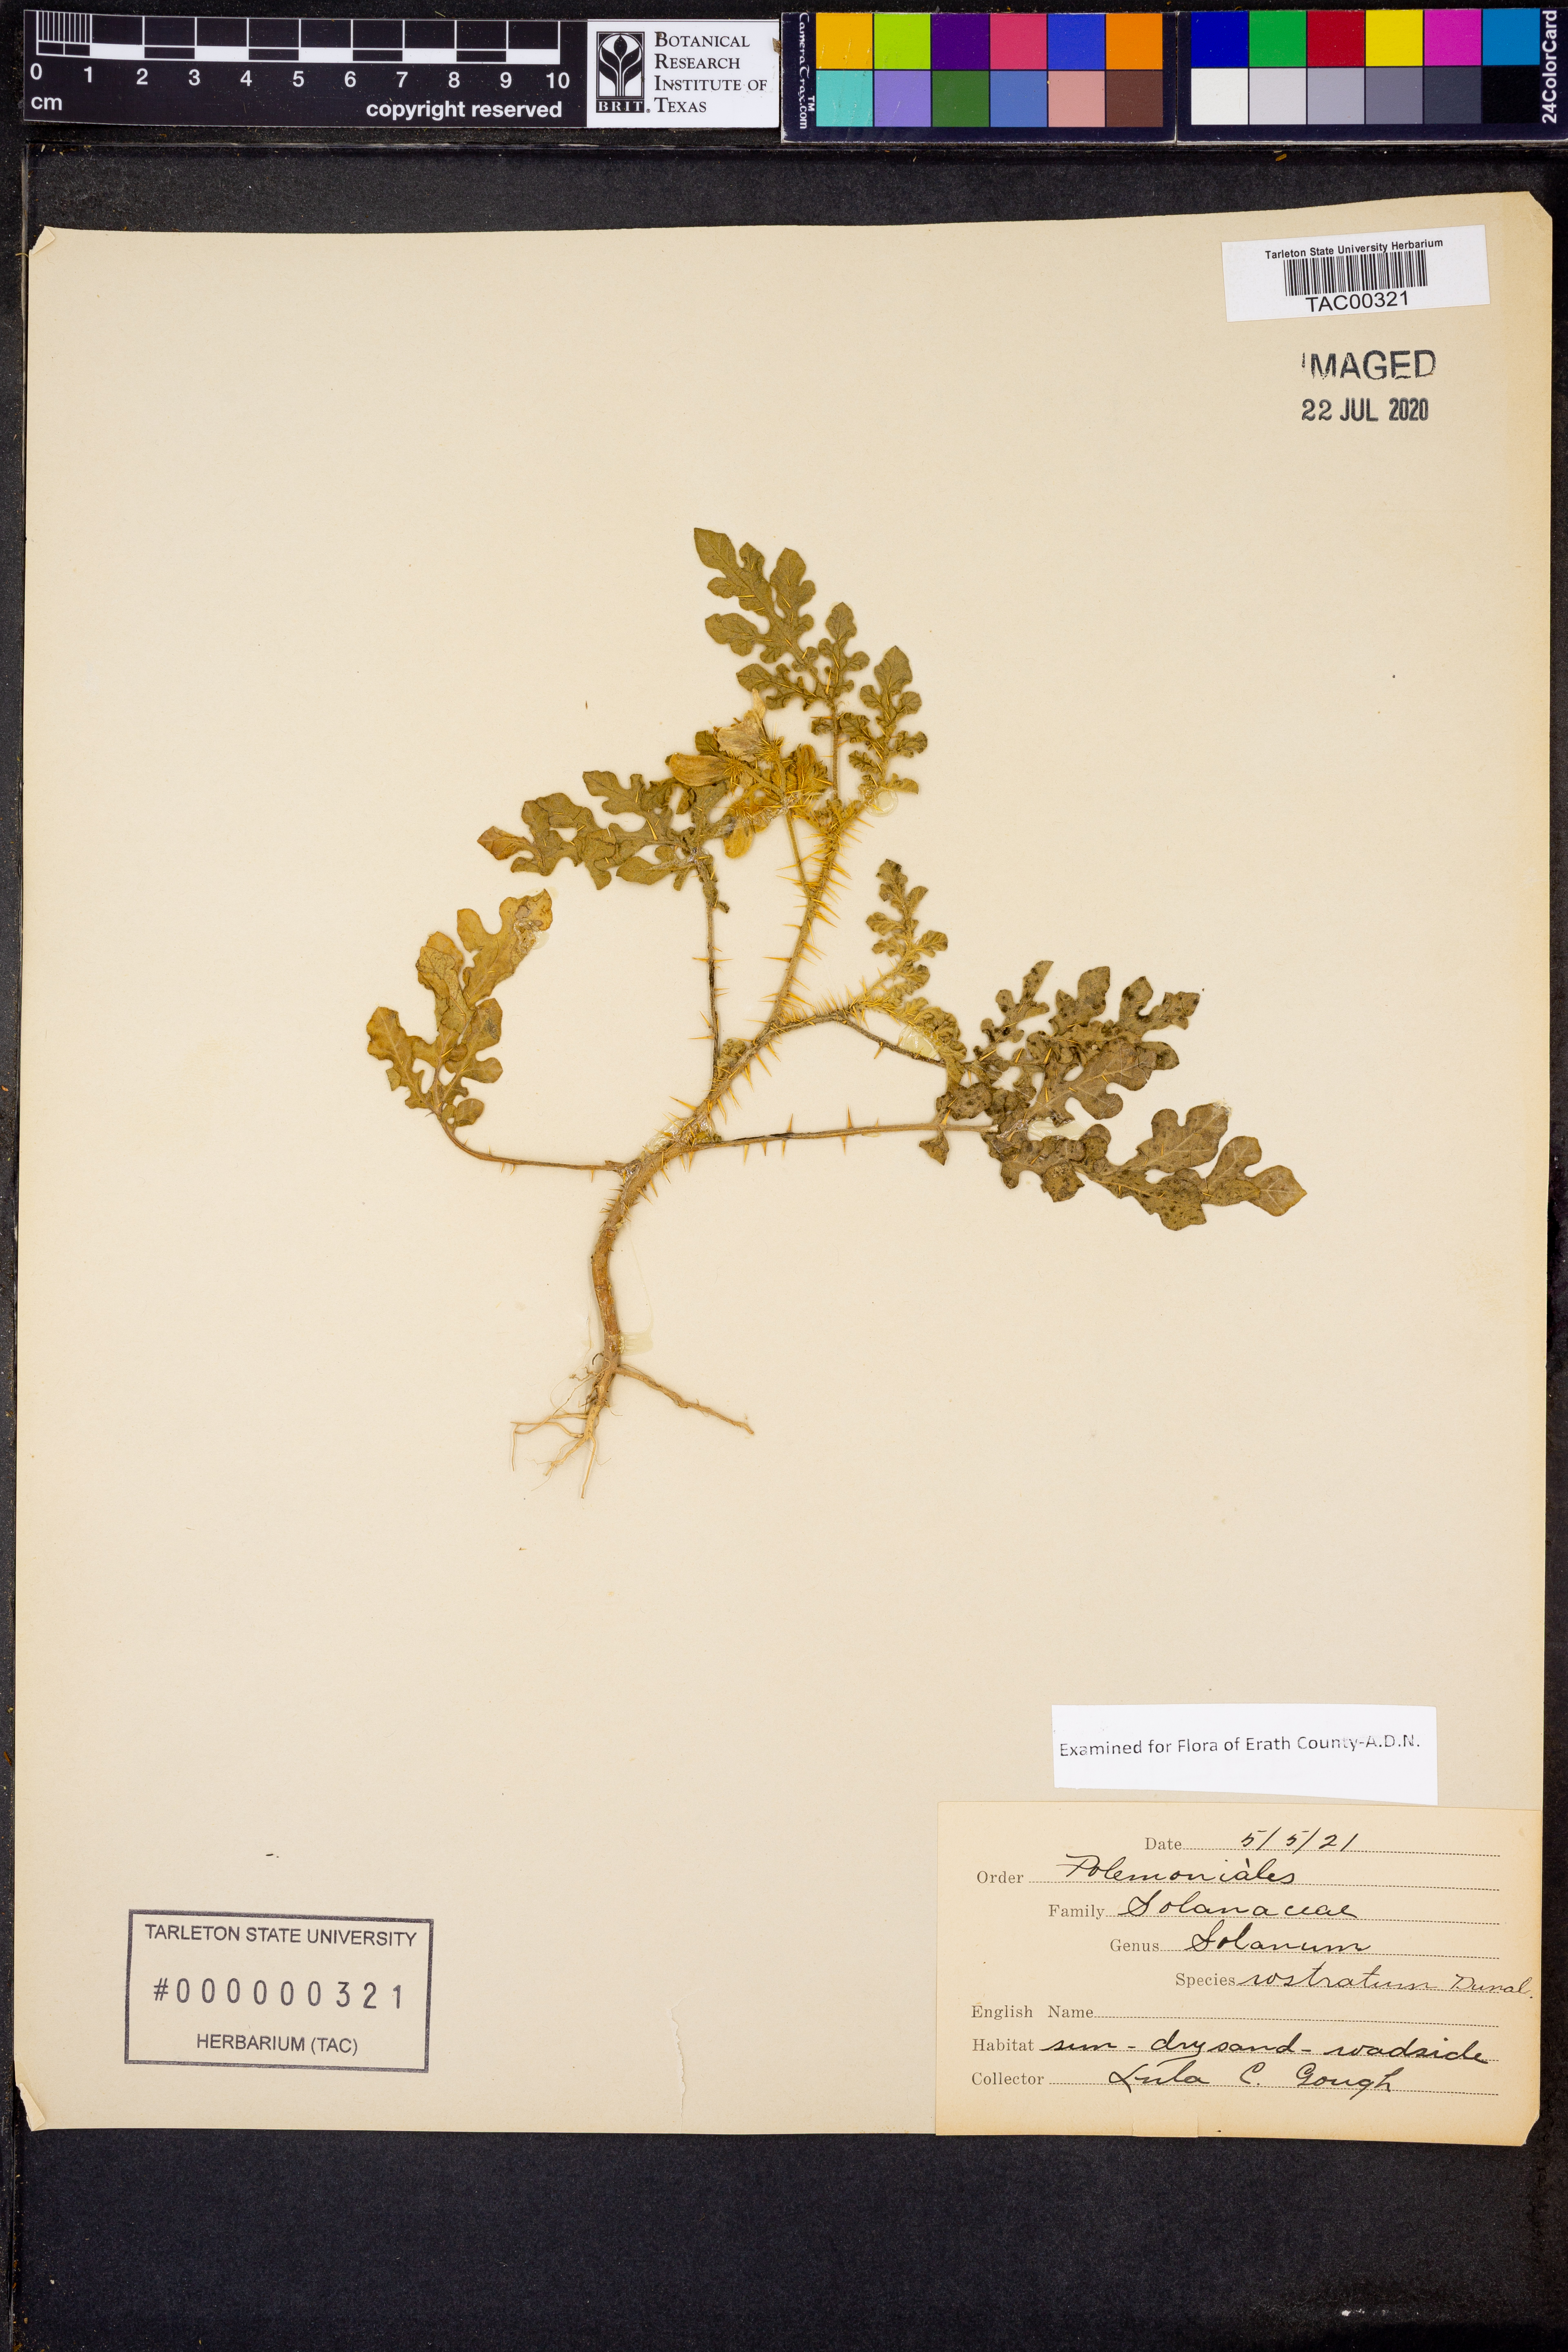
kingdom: Plantae
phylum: Tracheophyta
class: Magnoliopsida
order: Solanales
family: Solanaceae
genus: Solanum
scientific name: Solanum angustifolium
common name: Buffalobur nightshade
